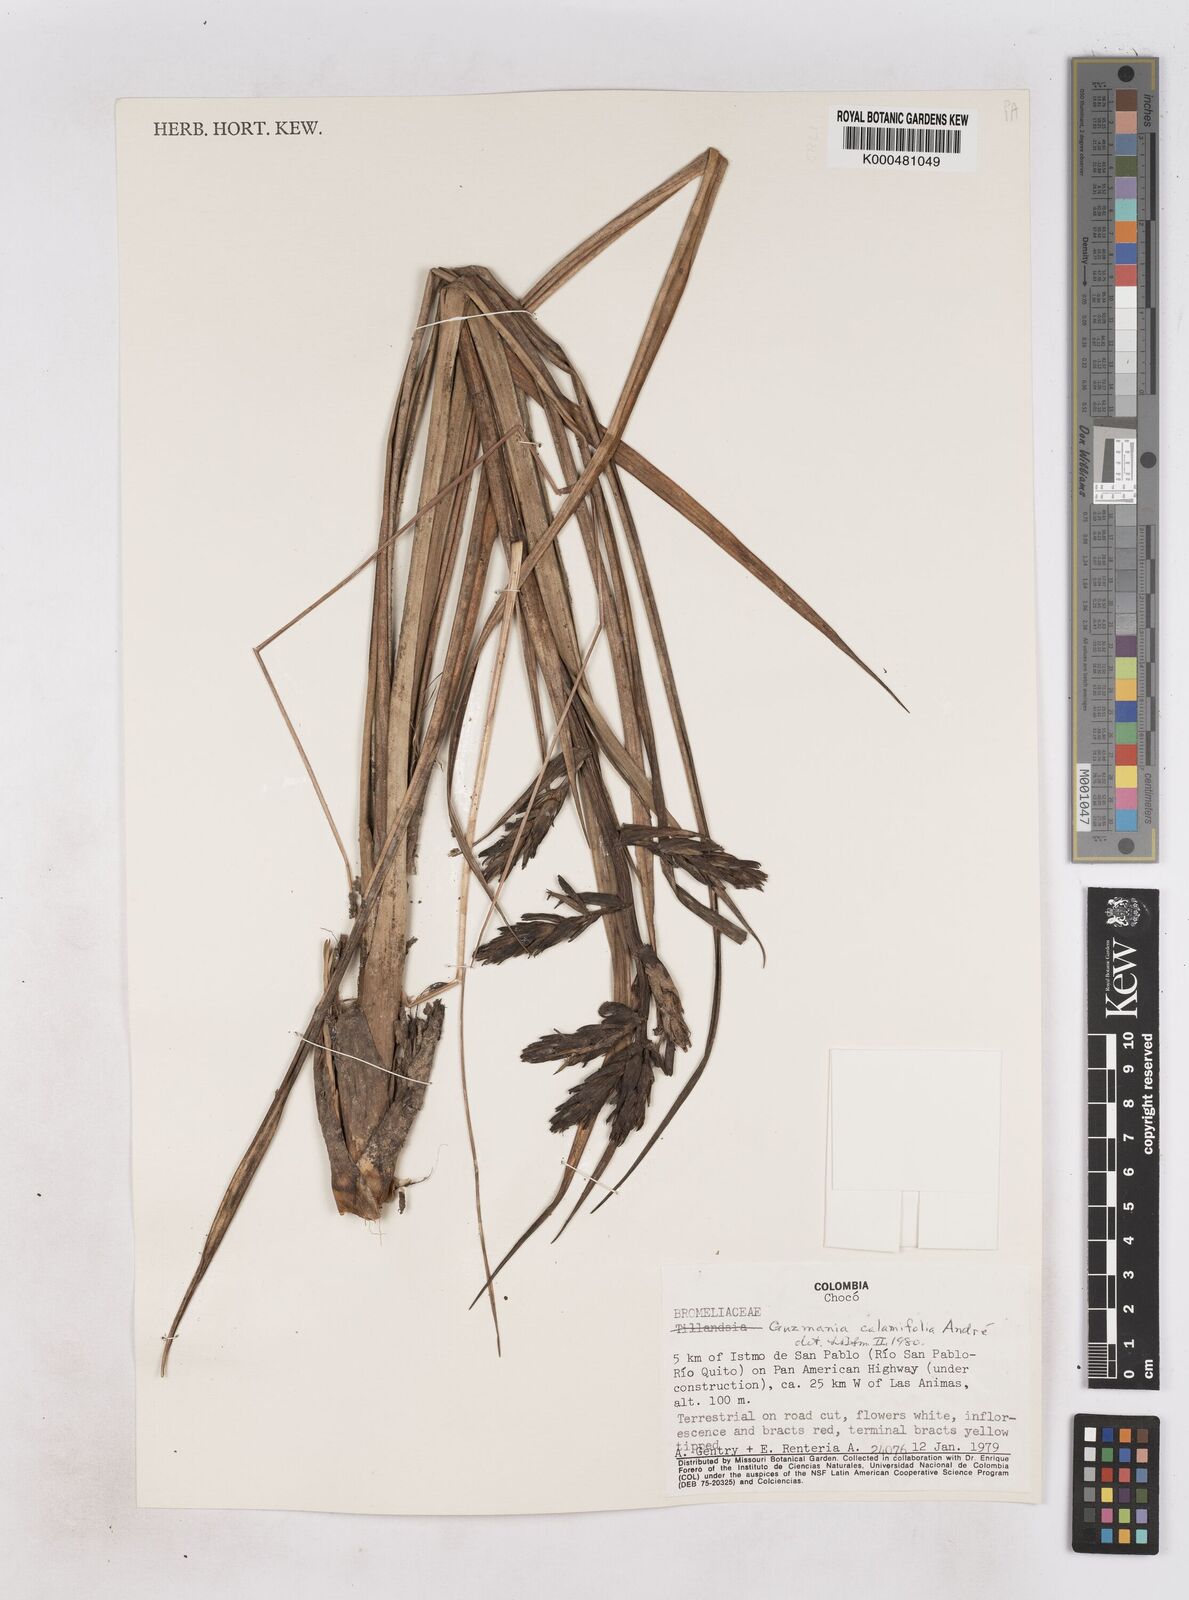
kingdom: Plantae
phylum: Tracheophyta
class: Liliopsida
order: Poales
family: Bromeliaceae
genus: Guzmania
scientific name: Guzmania
